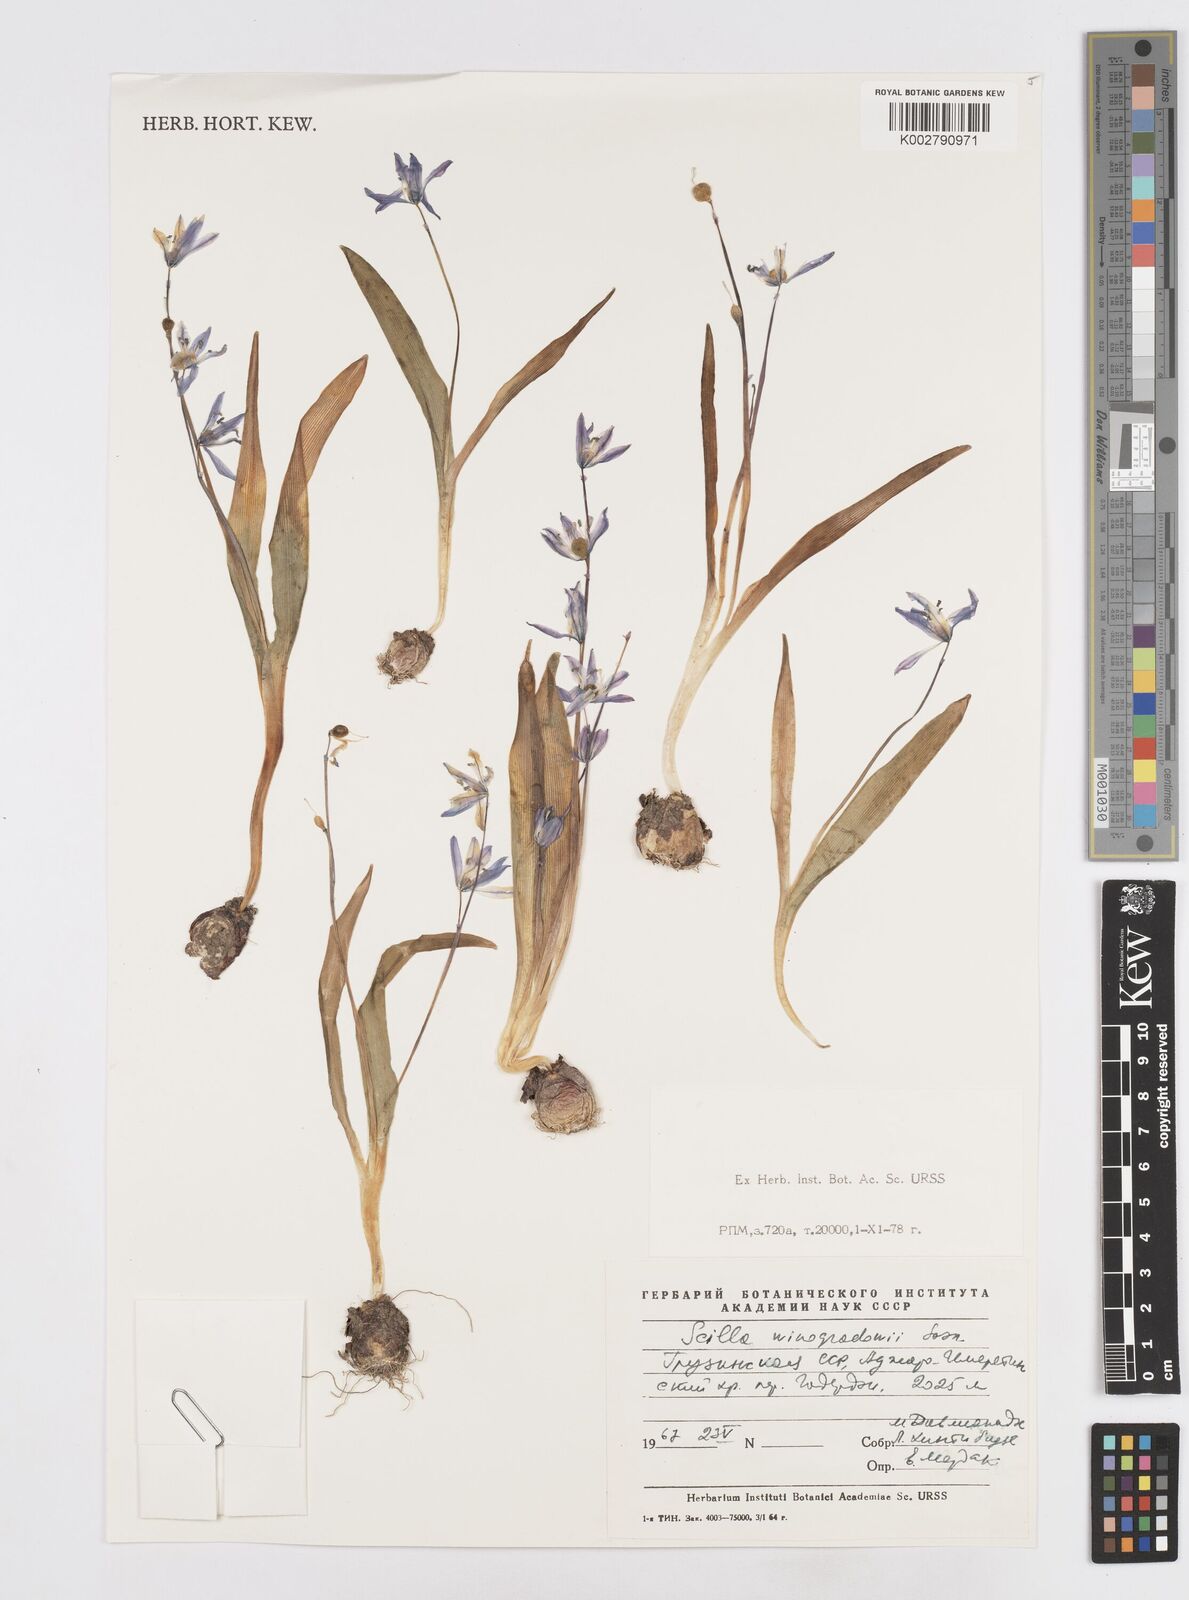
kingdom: Plantae
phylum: Tracheophyta
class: Liliopsida
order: Asparagales
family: Asparagaceae
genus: Scilla
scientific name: Scilla monanthos
